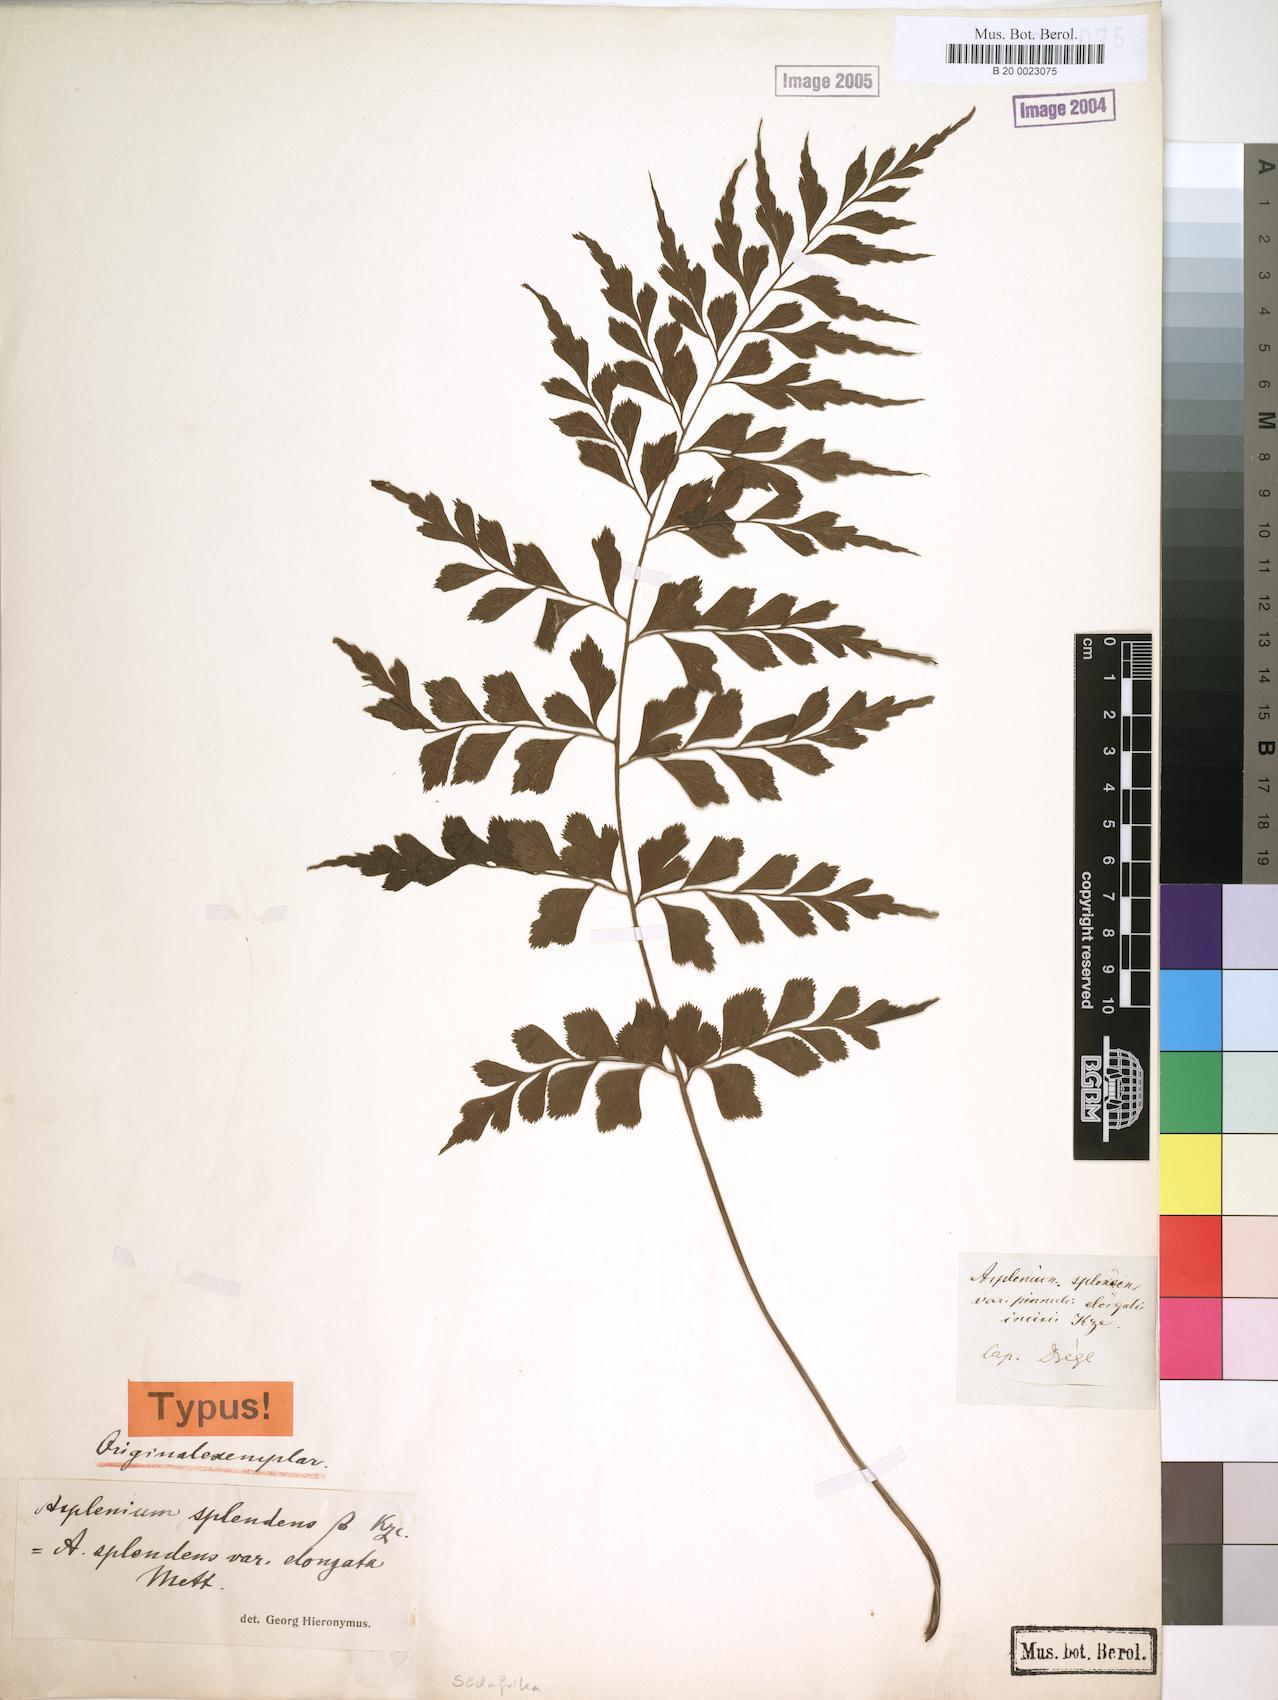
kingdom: Plantae
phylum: Tracheophyta
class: Polypodiopsida
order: Polypodiales
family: Aspleniaceae
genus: Asplenium
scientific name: Asplenium splendens
